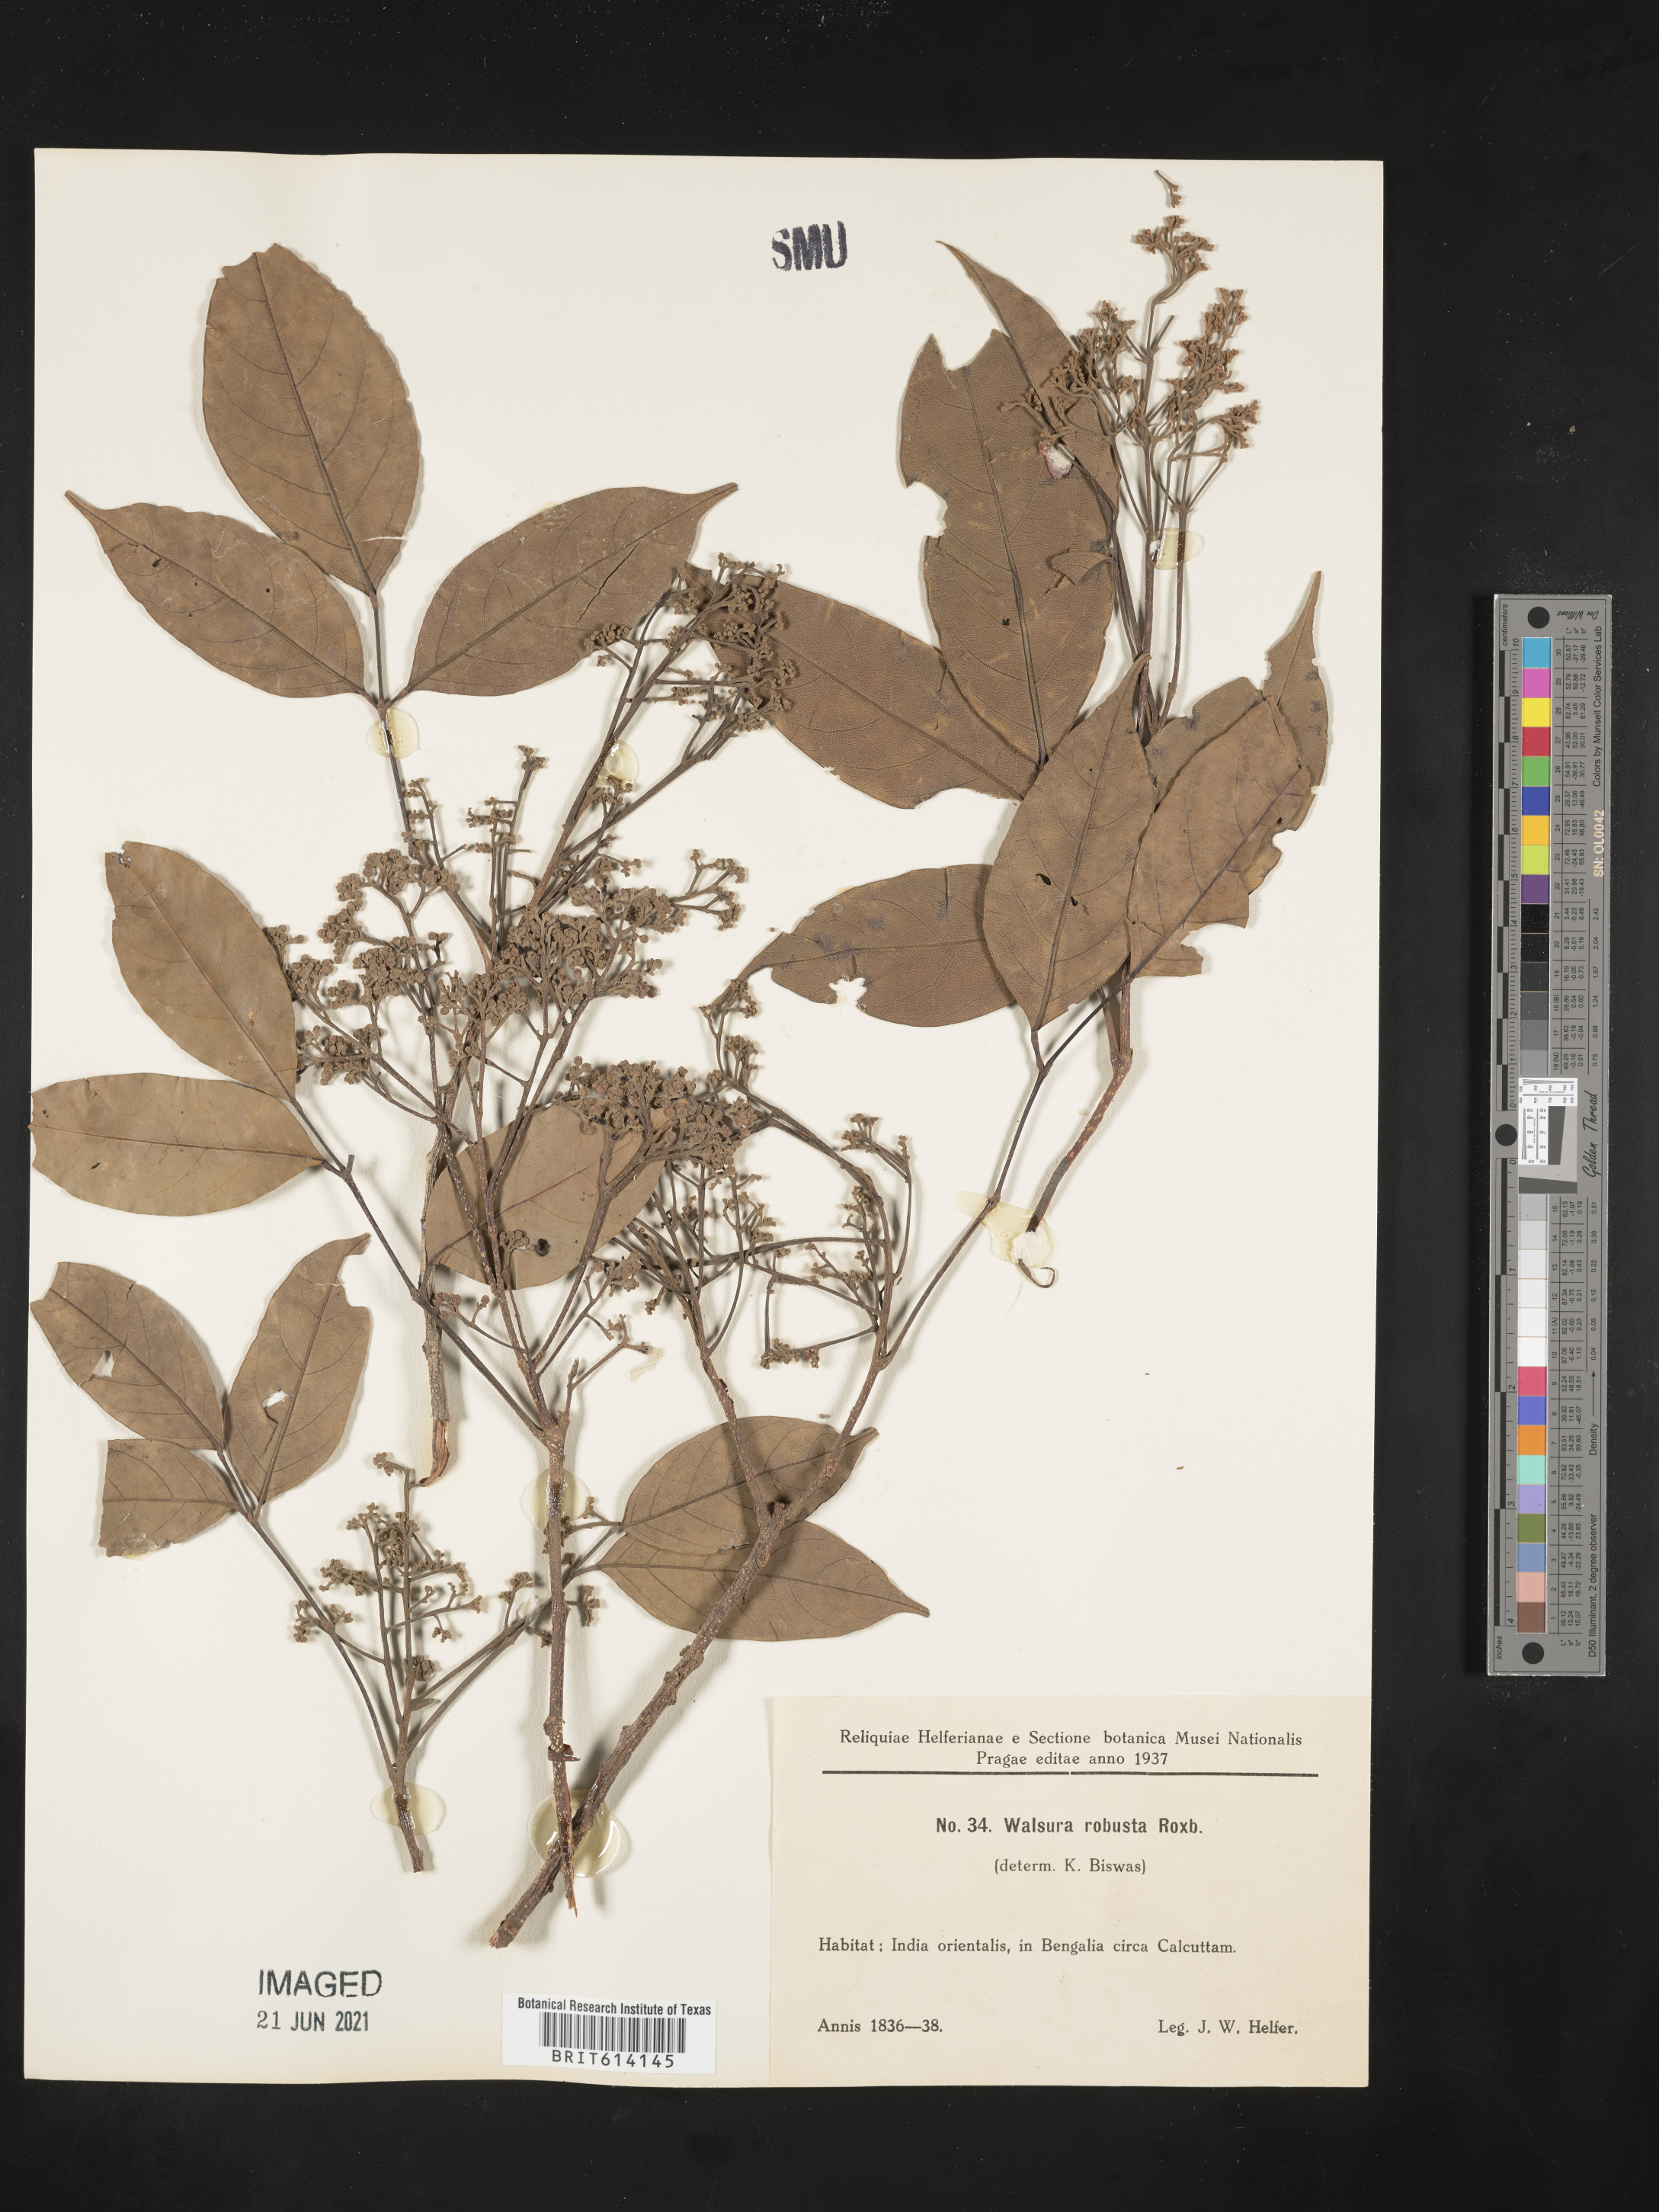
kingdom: Plantae
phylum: Tracheophyta
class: Magnoliopsida
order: Sapindales
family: Meliaceae
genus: Walsura
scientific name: Walsura robusta
